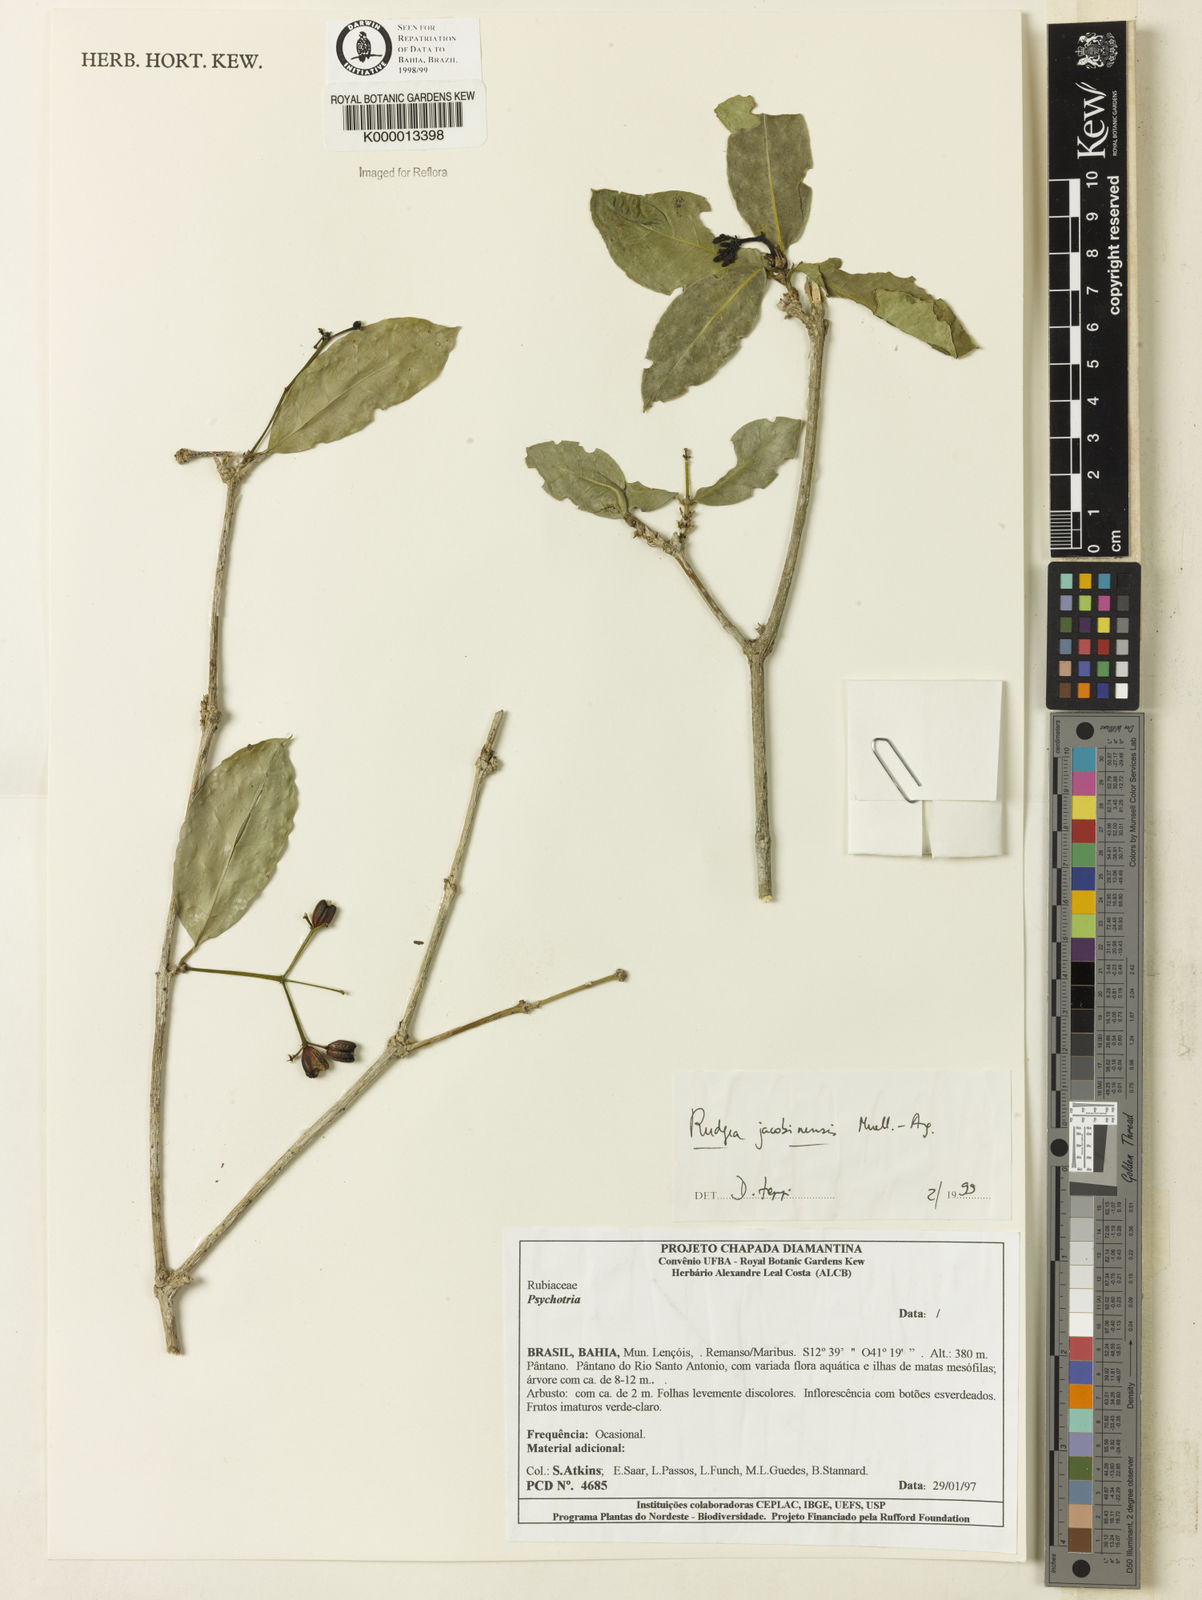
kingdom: Plantae
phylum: Tracheophyta
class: Magnoliopsida
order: Gentianales
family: Rubiaceae
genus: Rudgea
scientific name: Rudgea erioloba
